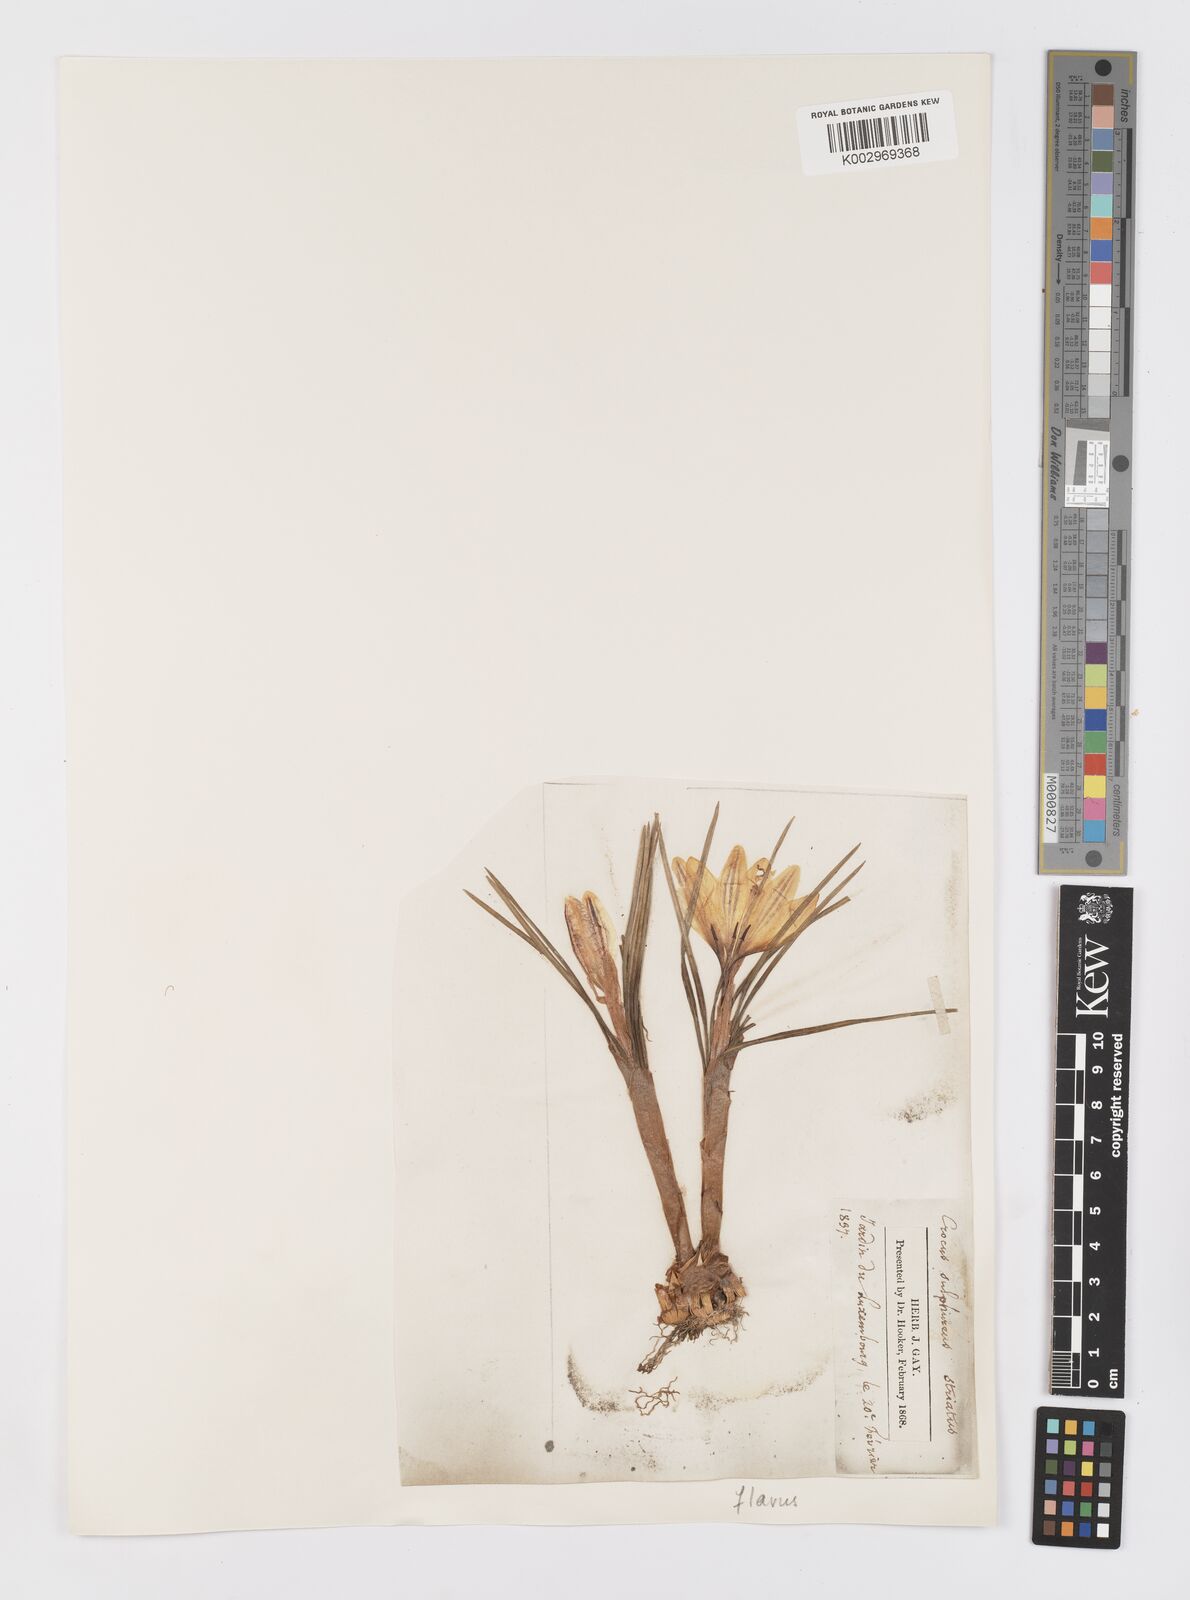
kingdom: Plantae
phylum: Tracheophyta
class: Liliopsida
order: Asparagales
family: Iridaceae
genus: Crocus
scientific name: Crocus flavus
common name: Yellow crocus
